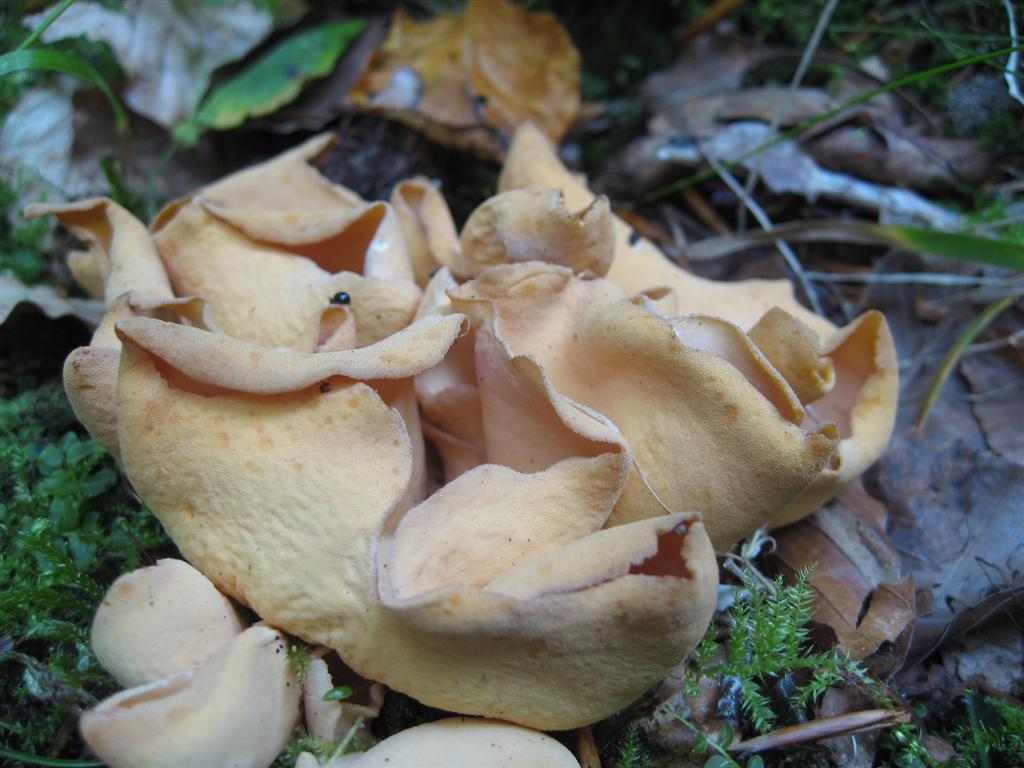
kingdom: Fungi
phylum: Ascomycota
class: Pezizomycetes
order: Pezizales
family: Otideaceae
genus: Otidea
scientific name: Otidea onotica
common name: æsel-ørebæger
